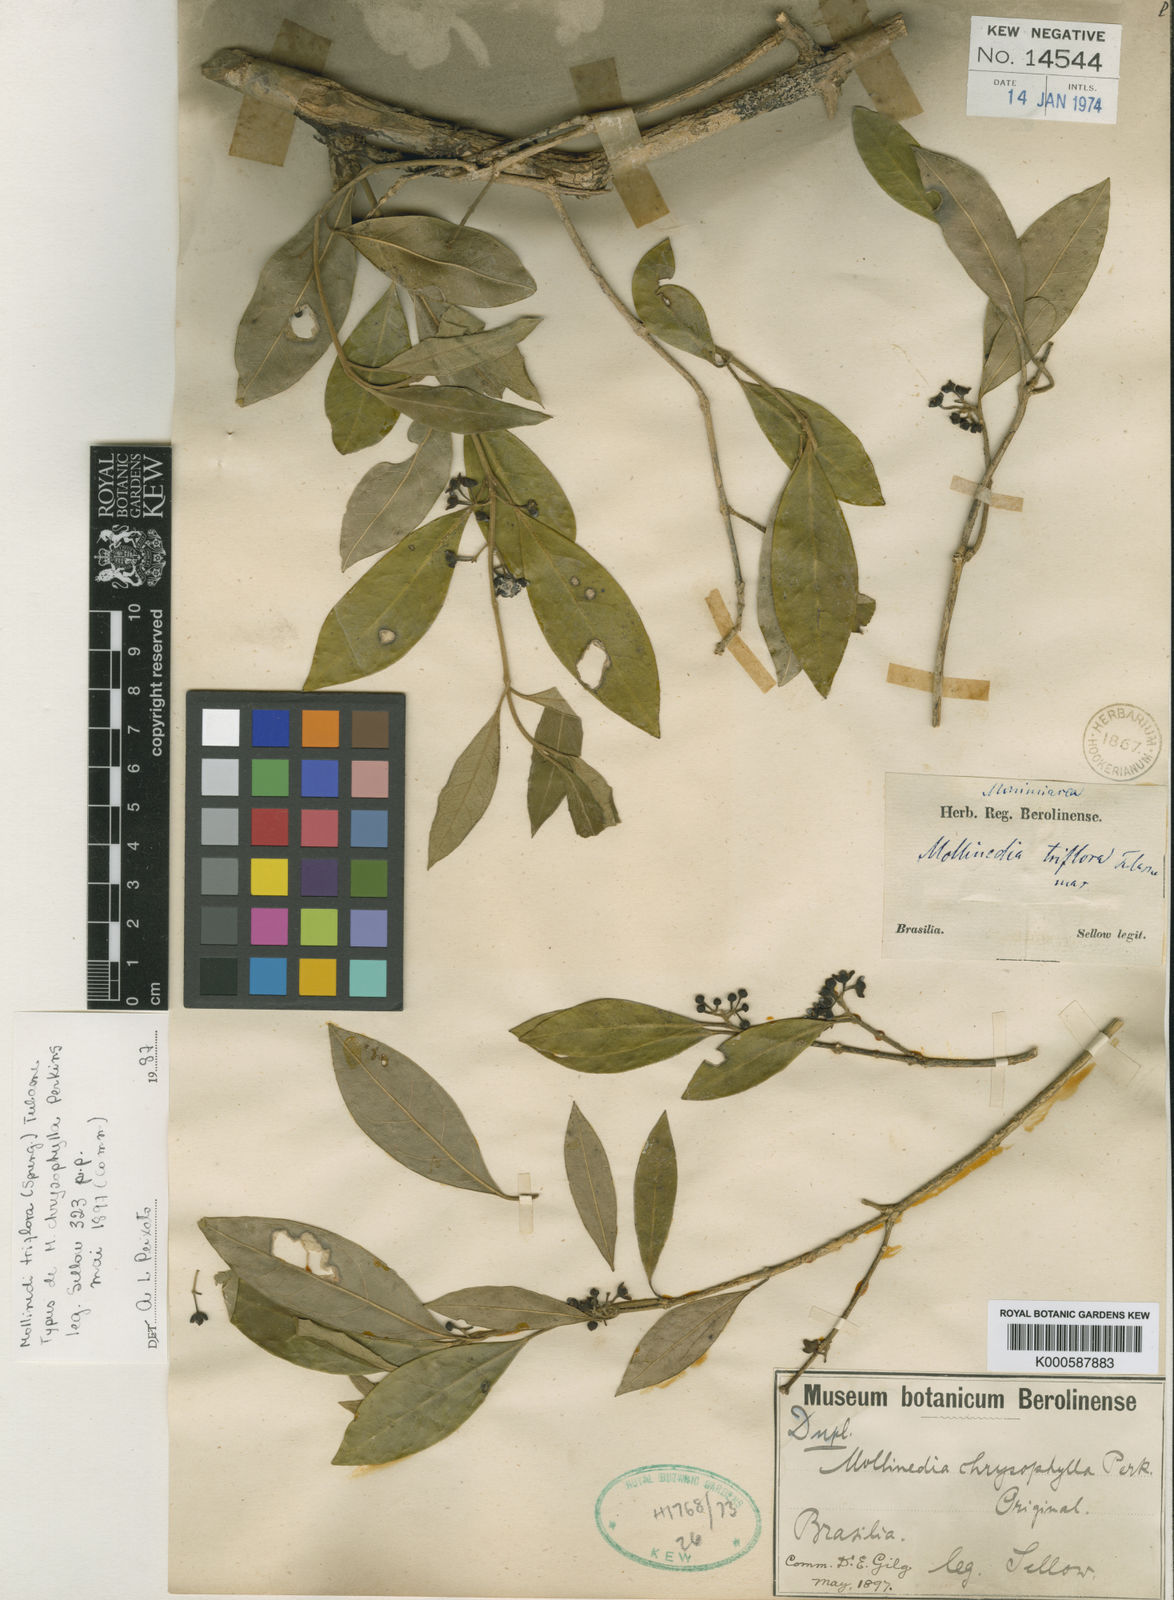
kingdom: Plantae
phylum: Tracheophyta
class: Magnoliopsida
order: Laurales
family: Monimiaceae
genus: Mollinedia
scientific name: Mollinedia triflora
